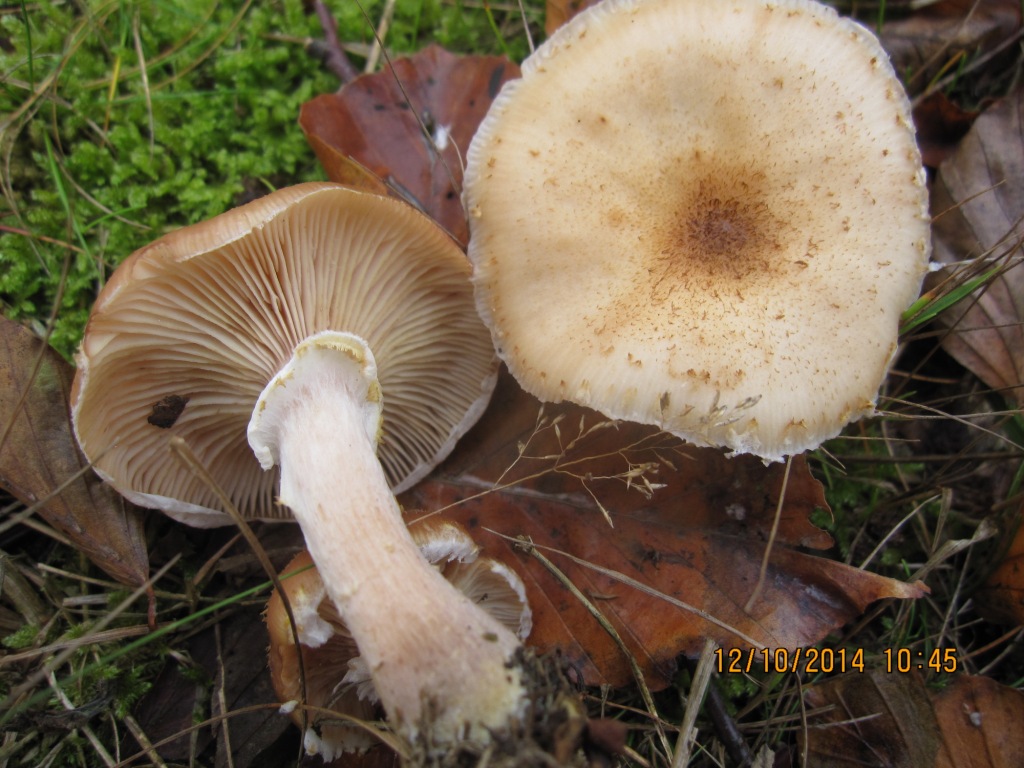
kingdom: Fungi
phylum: Basidiomycota
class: Agaricomycetes
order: Agaricales
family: Physalacriaceae
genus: Armillaria
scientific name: Armillaria lutea
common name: køllestokket honningsvamp
